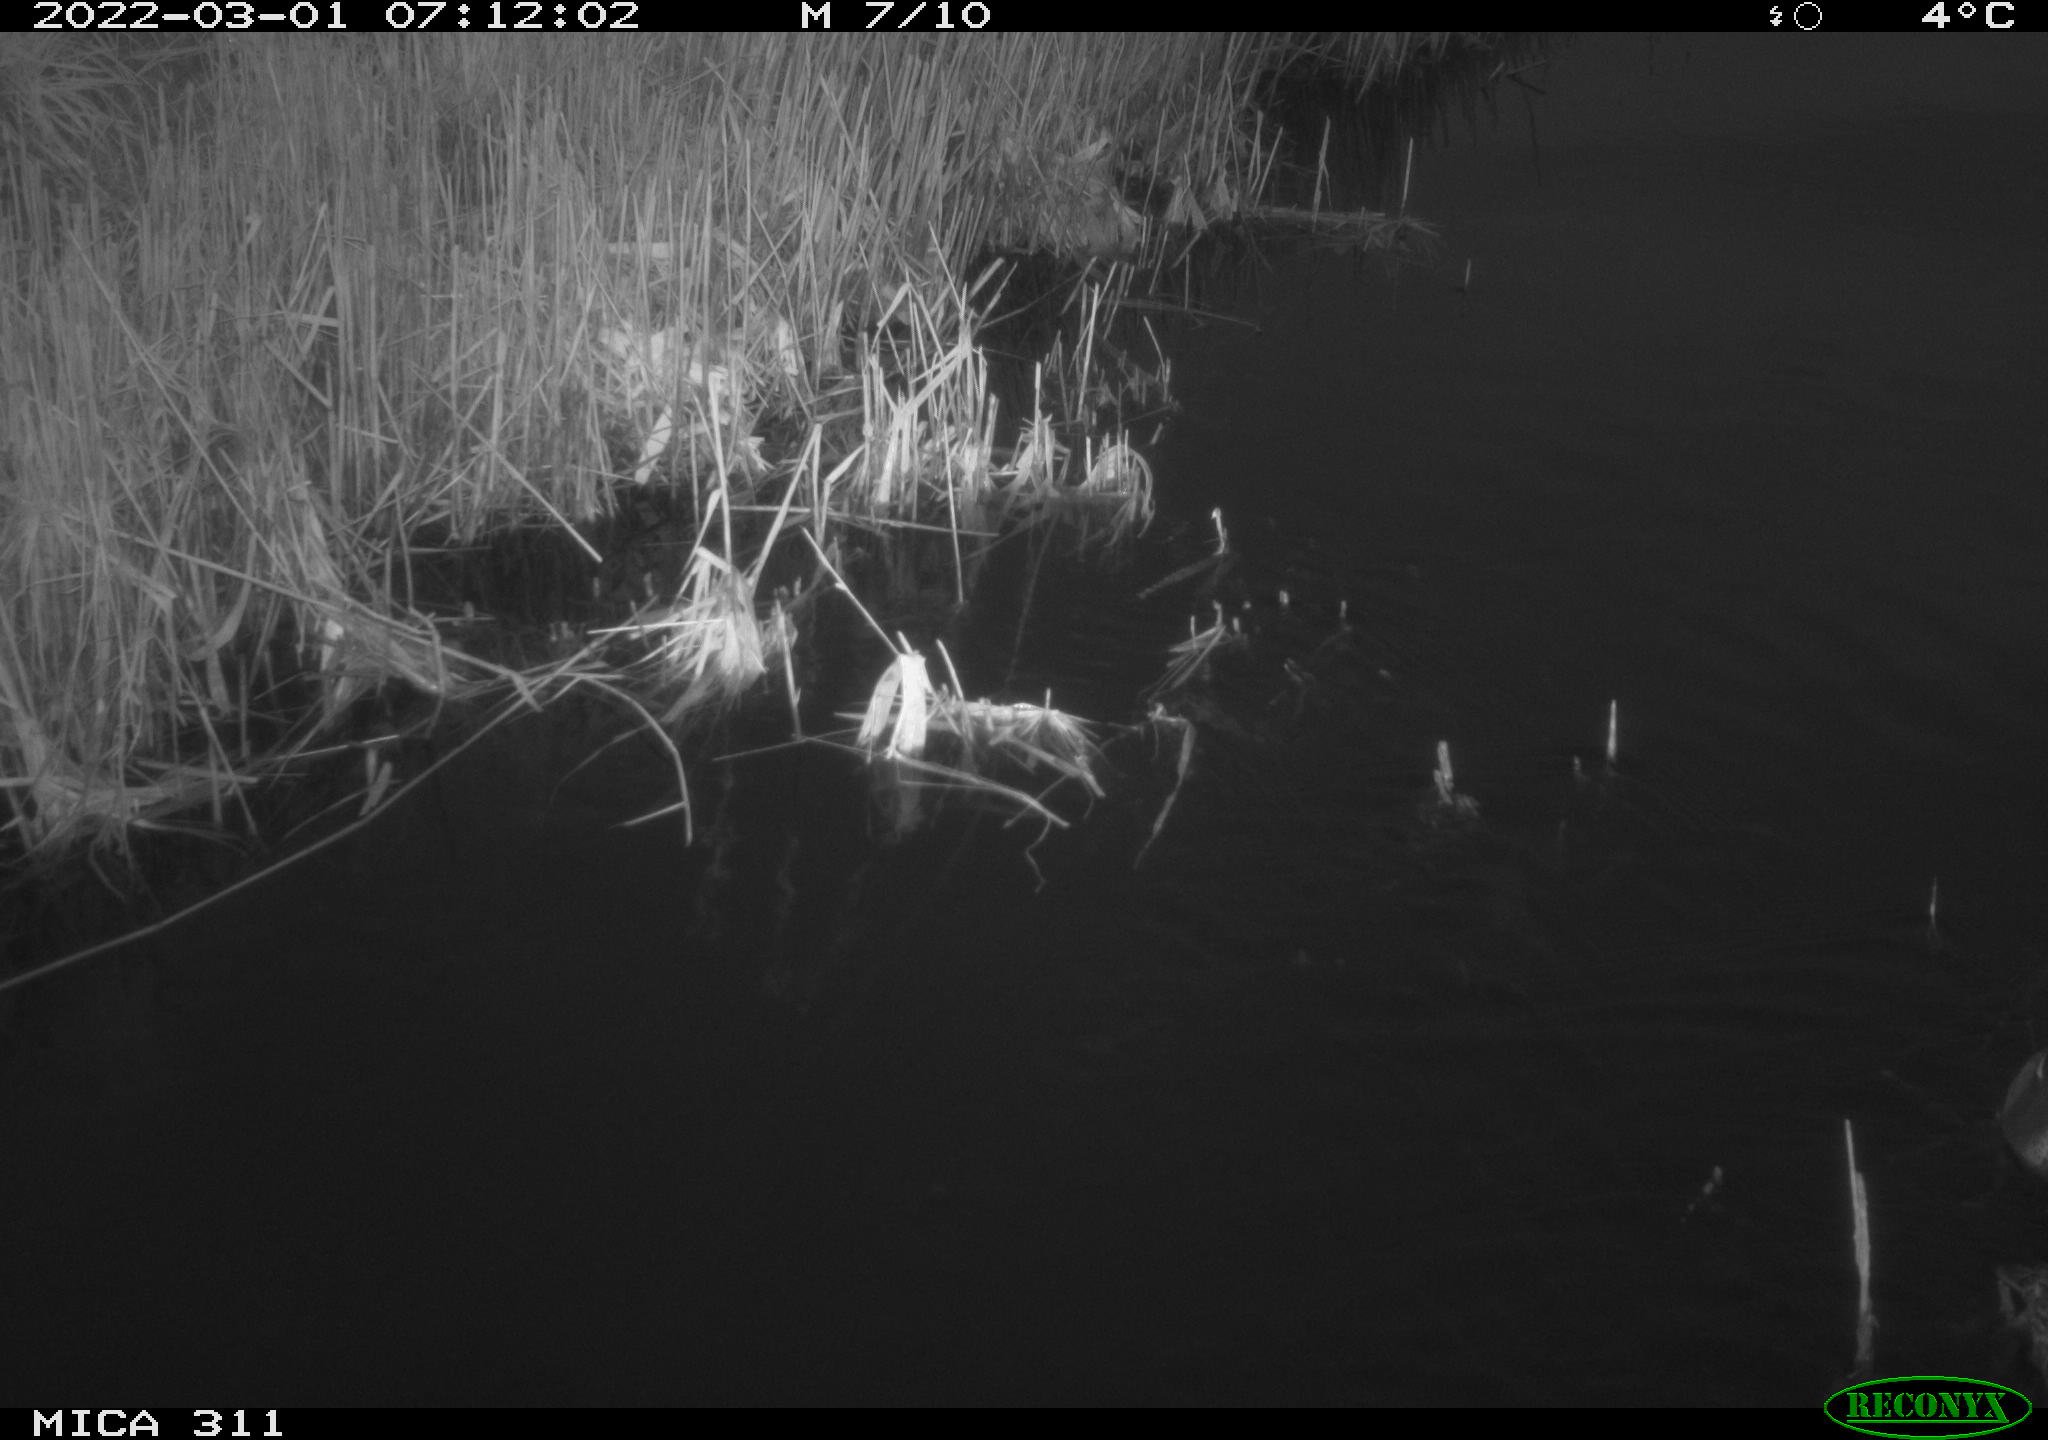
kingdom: Animalia
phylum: Chordata
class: Aves
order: Anseriformes
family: Anatidae
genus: Anas
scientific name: Anas crecca
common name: Eurasian teal
